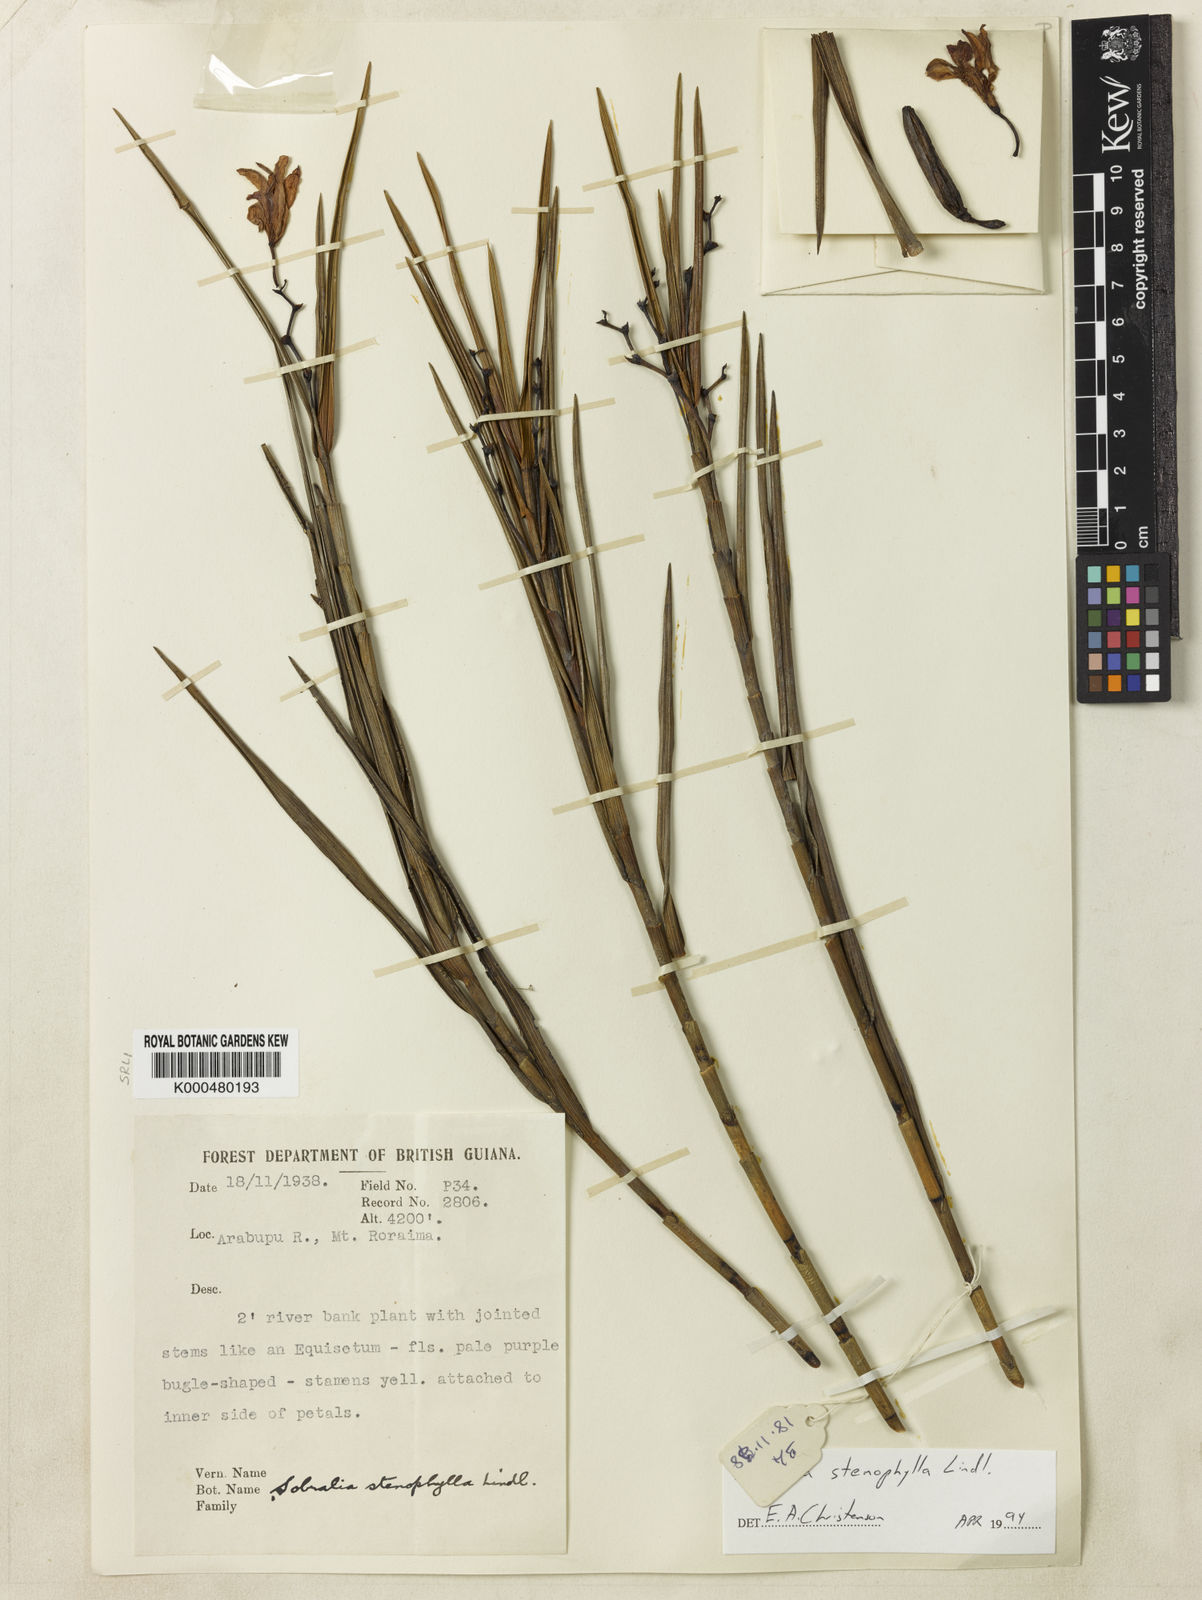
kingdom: Plantae
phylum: Tracheophyta
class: Liliopsida
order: Asparagales
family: Orchidaceae
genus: Sobralia
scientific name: Sobralia stenophylla
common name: Thin leafed sobralia
